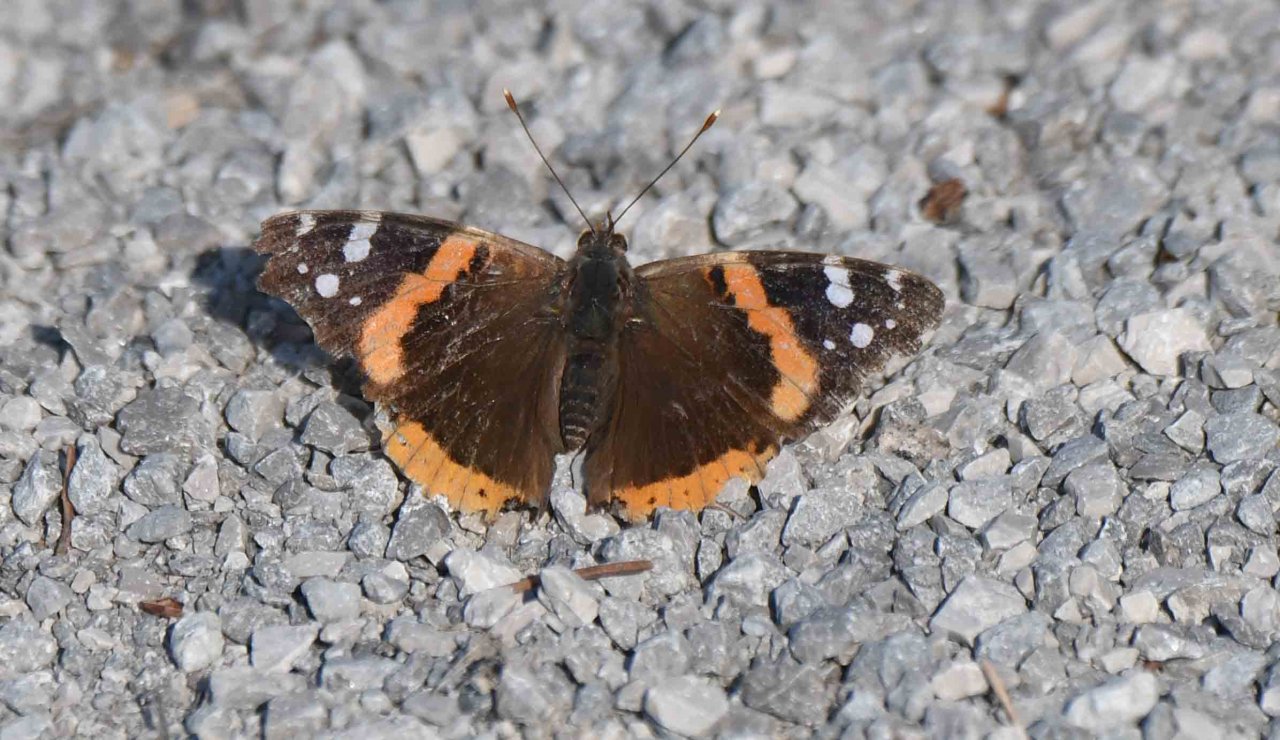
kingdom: Animalia
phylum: Arthropoda
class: Insecta
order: Lepidoptera
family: Nymphalidae
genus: Vanessa
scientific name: Vanessa atalanta
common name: Red Admiral
